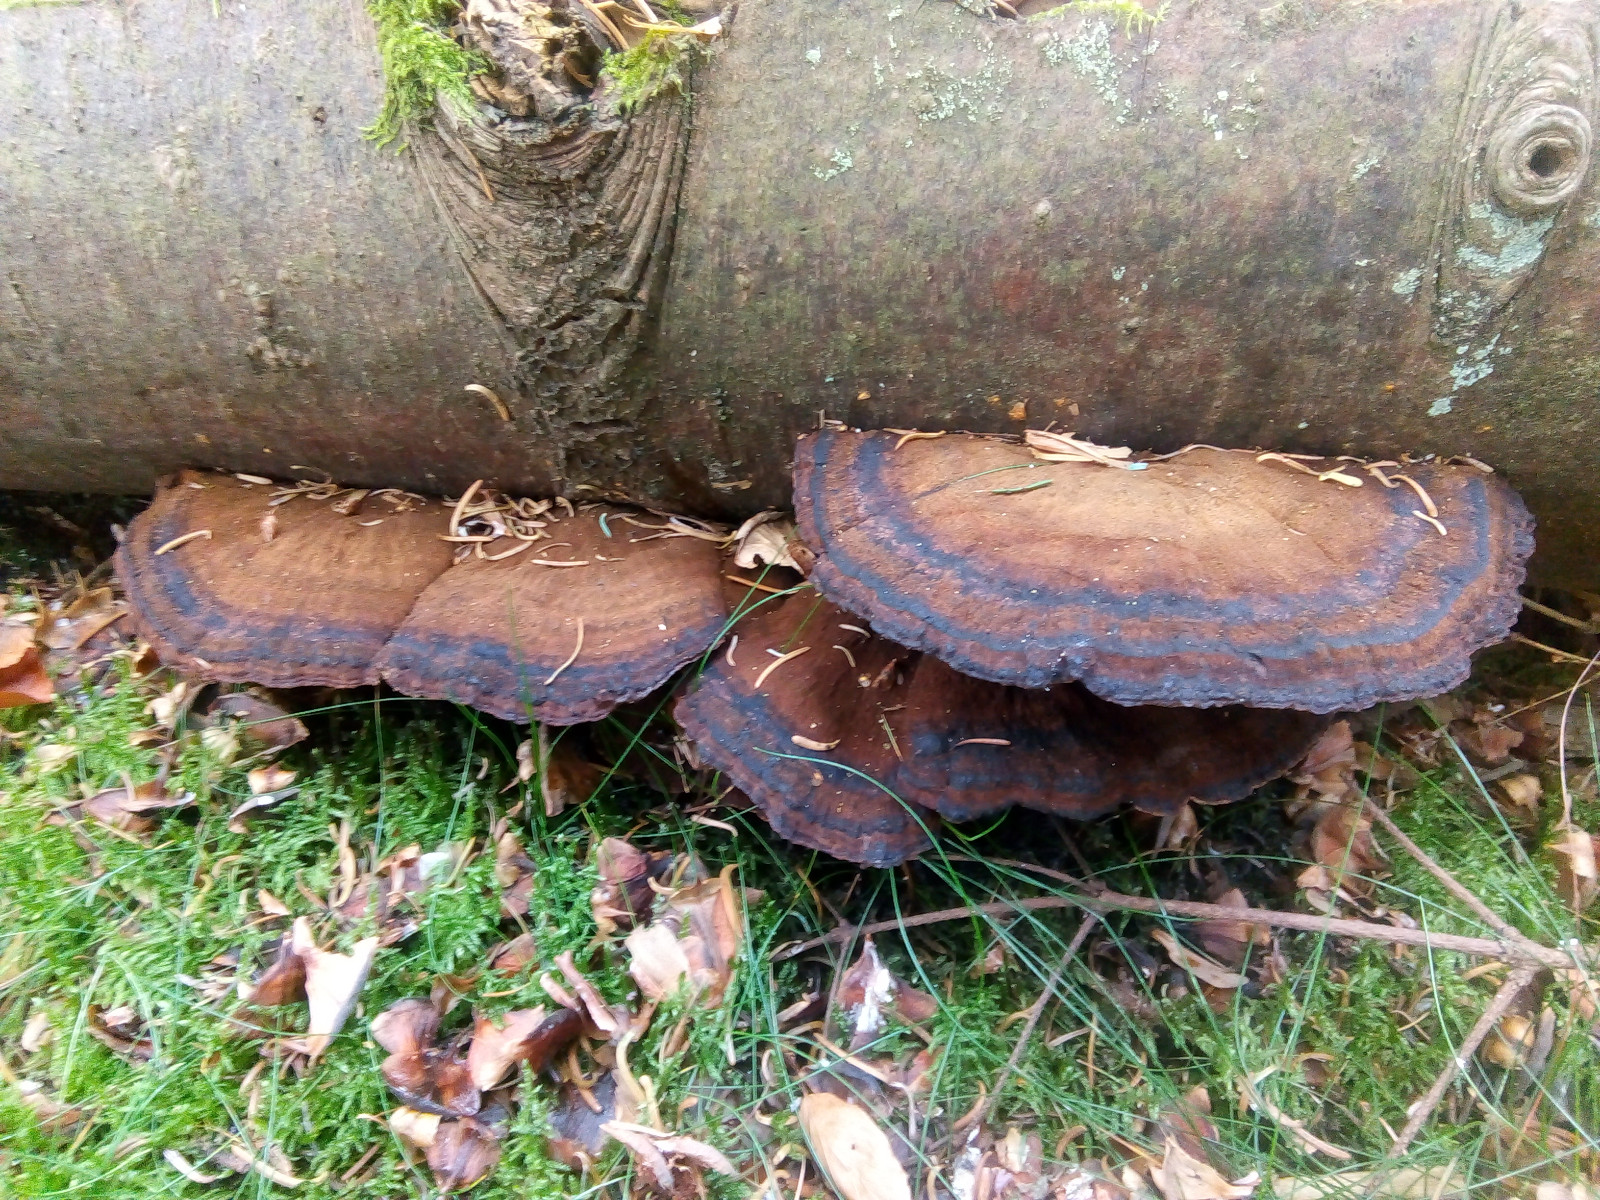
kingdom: Fungi
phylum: Basidiomycota
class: Agaricomycetes
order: Polyporales
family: Ischnodermataceae
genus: Ischnoderma
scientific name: Ischnoderma benzoinum
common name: gran-tjæreporesvamp
